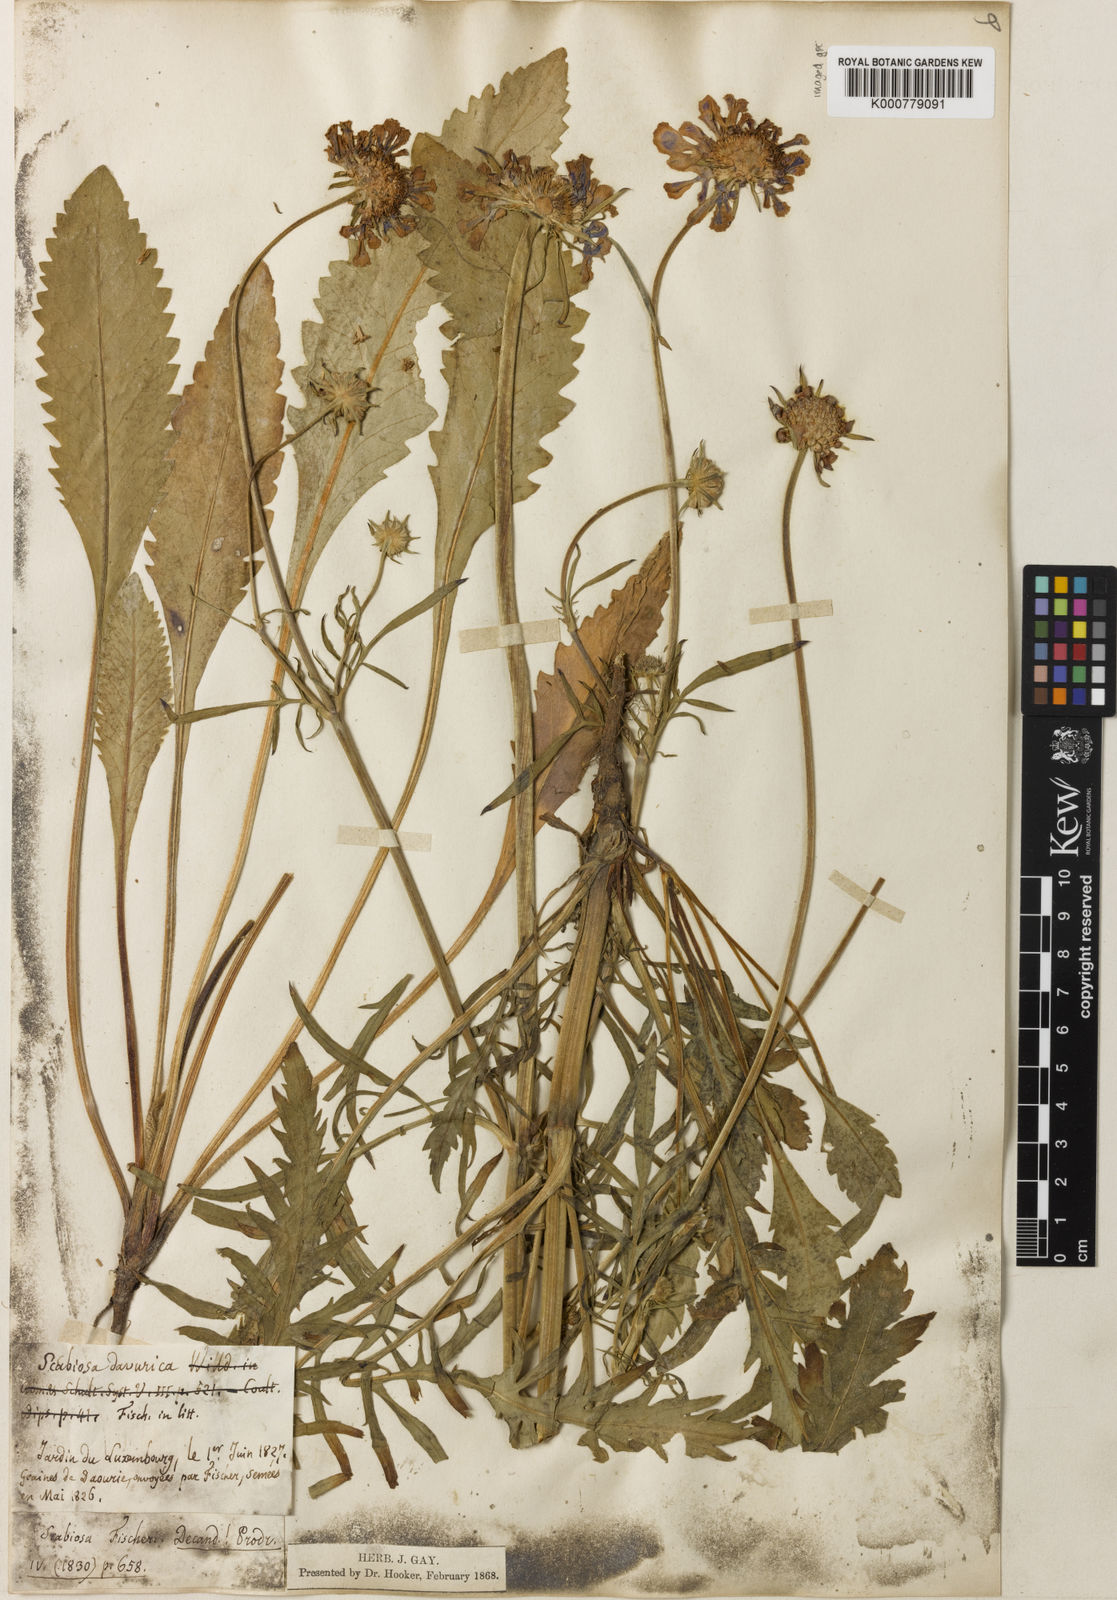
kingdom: Plantae
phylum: Tracheophyta
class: Magnoliopsida
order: Dipsacales
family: Caprifoliaceae
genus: Scabiosa
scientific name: Scabiosa columbaria
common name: Small scabious
